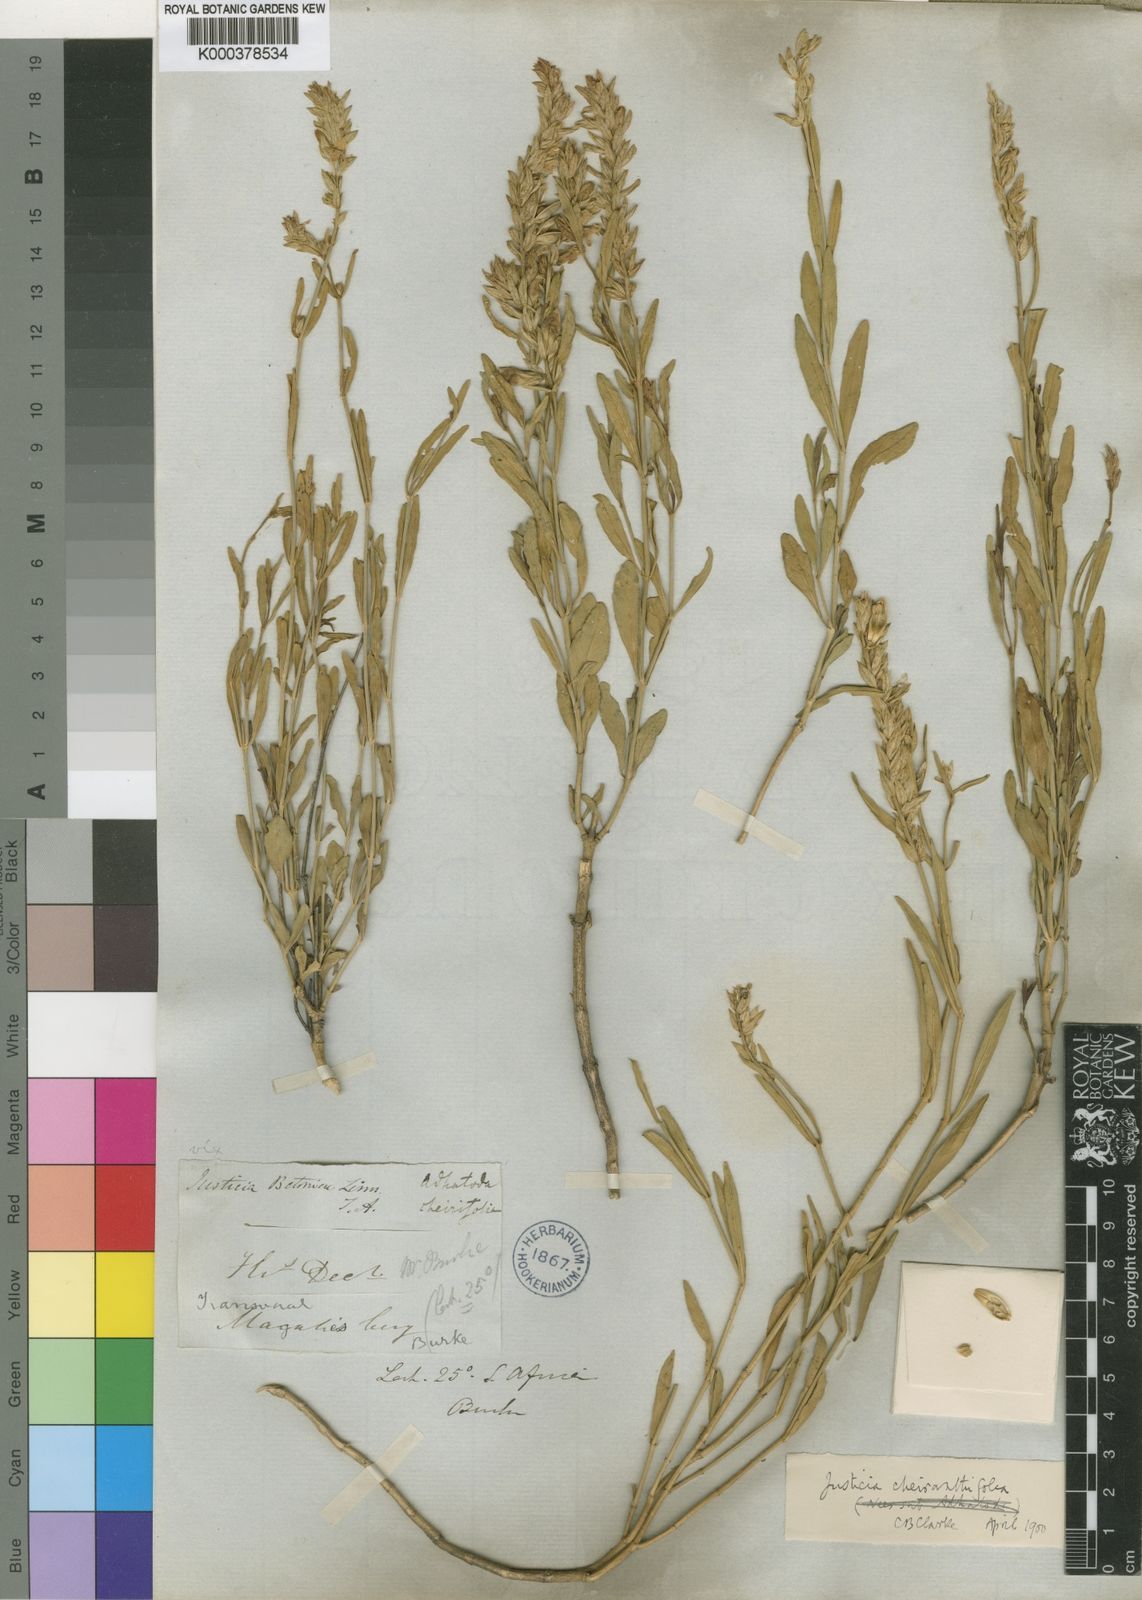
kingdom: Plantae
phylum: Tracheophyta
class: Magnoliopsida
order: Lamiales
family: Acanthaceae
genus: Nicoteba
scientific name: Nicoteba betonica
